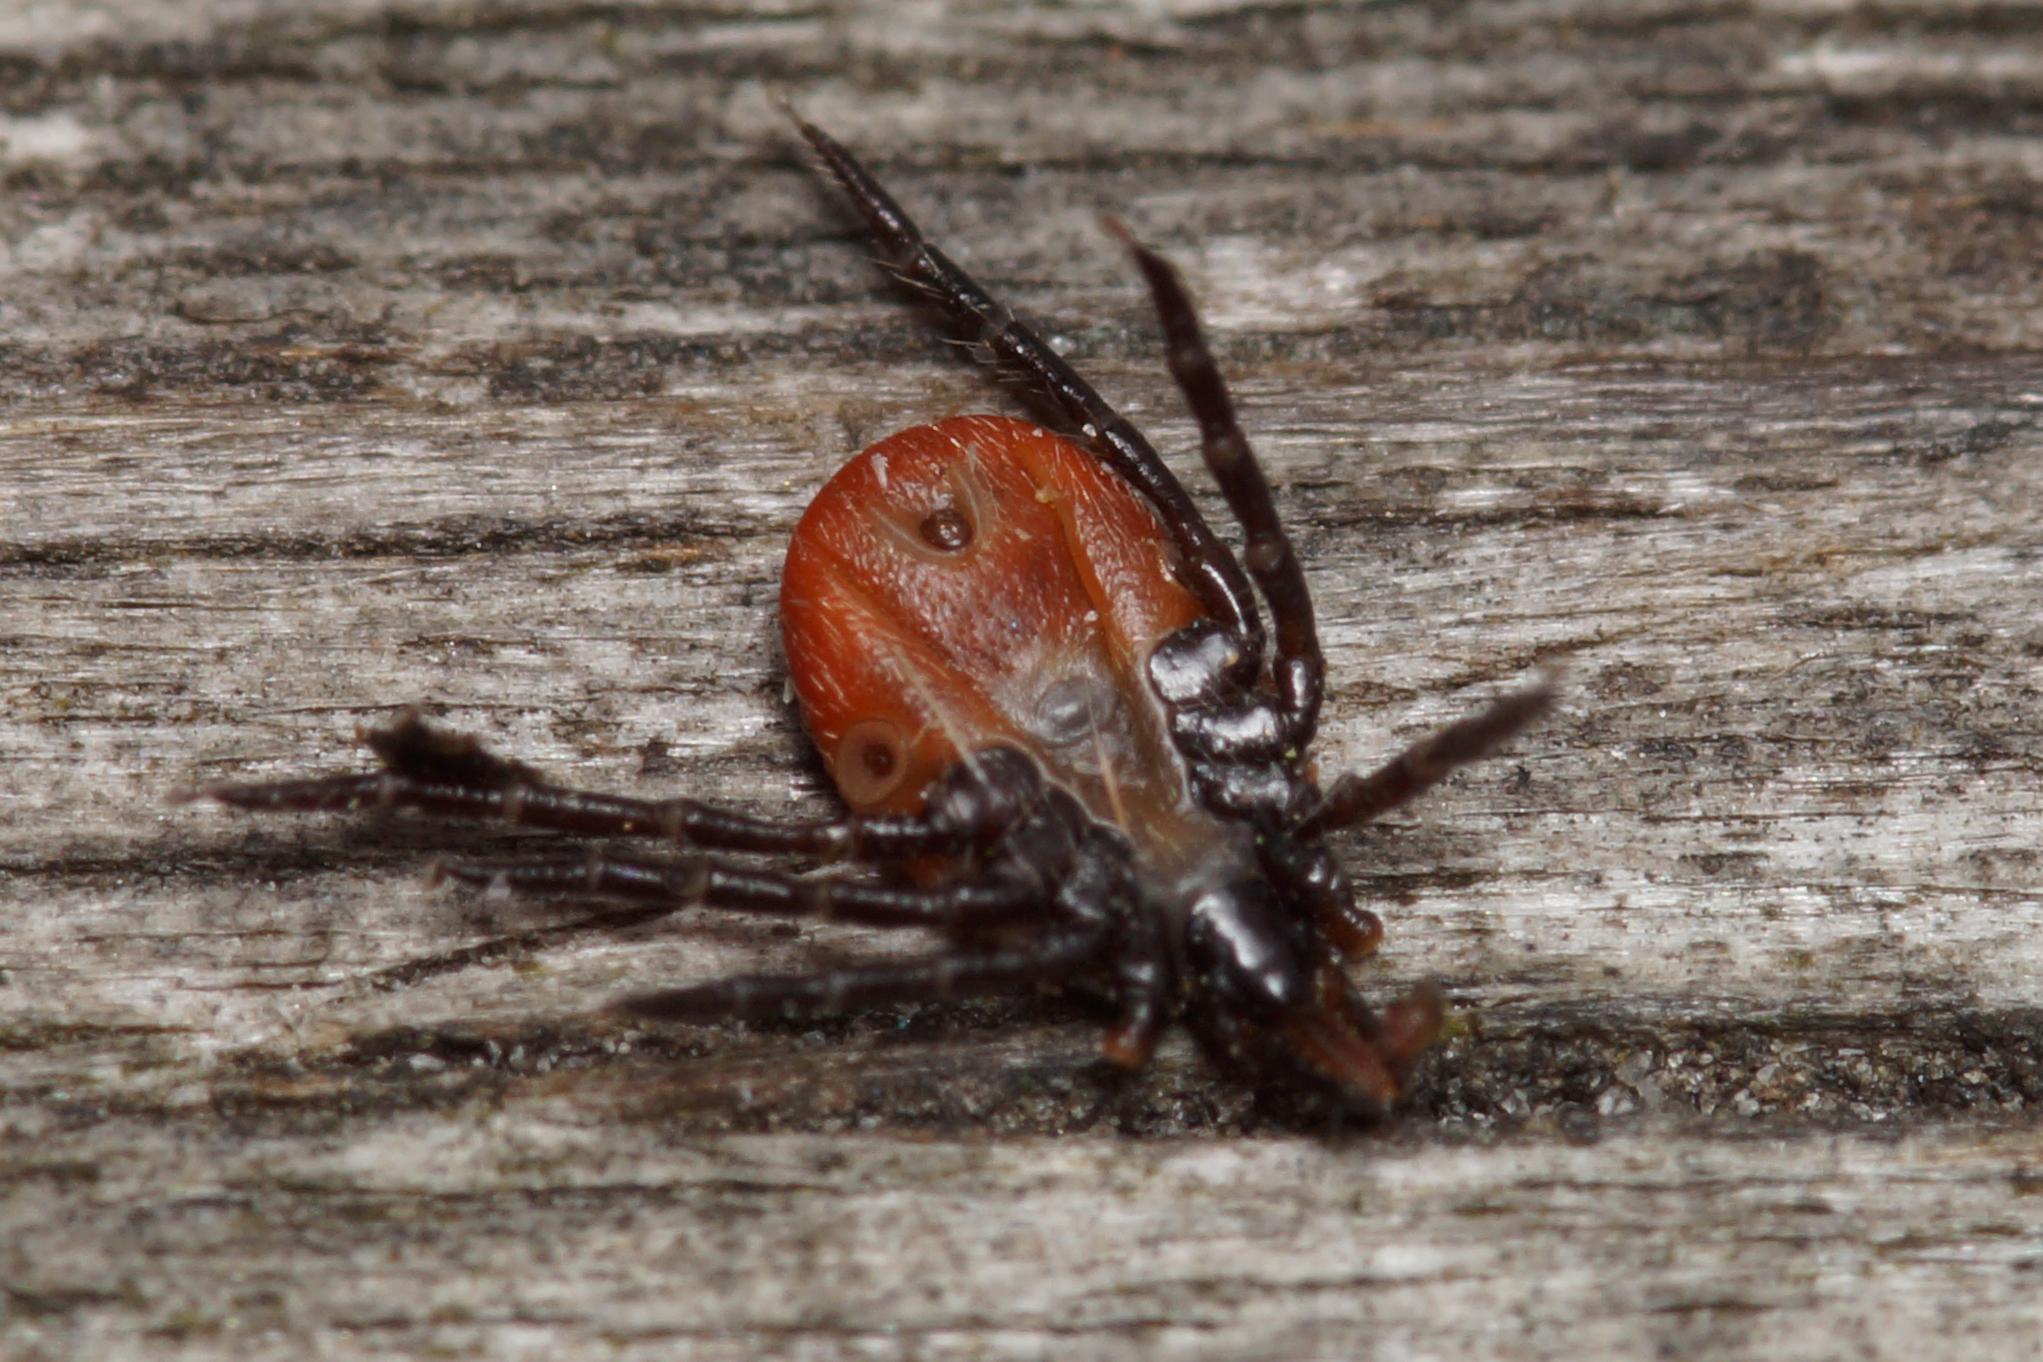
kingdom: Animalia
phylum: Arthropoda
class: Arachnida
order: Ixodida
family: Ixodidae
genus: Ixodes
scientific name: Ixodes ricinus
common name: Skovflåt
